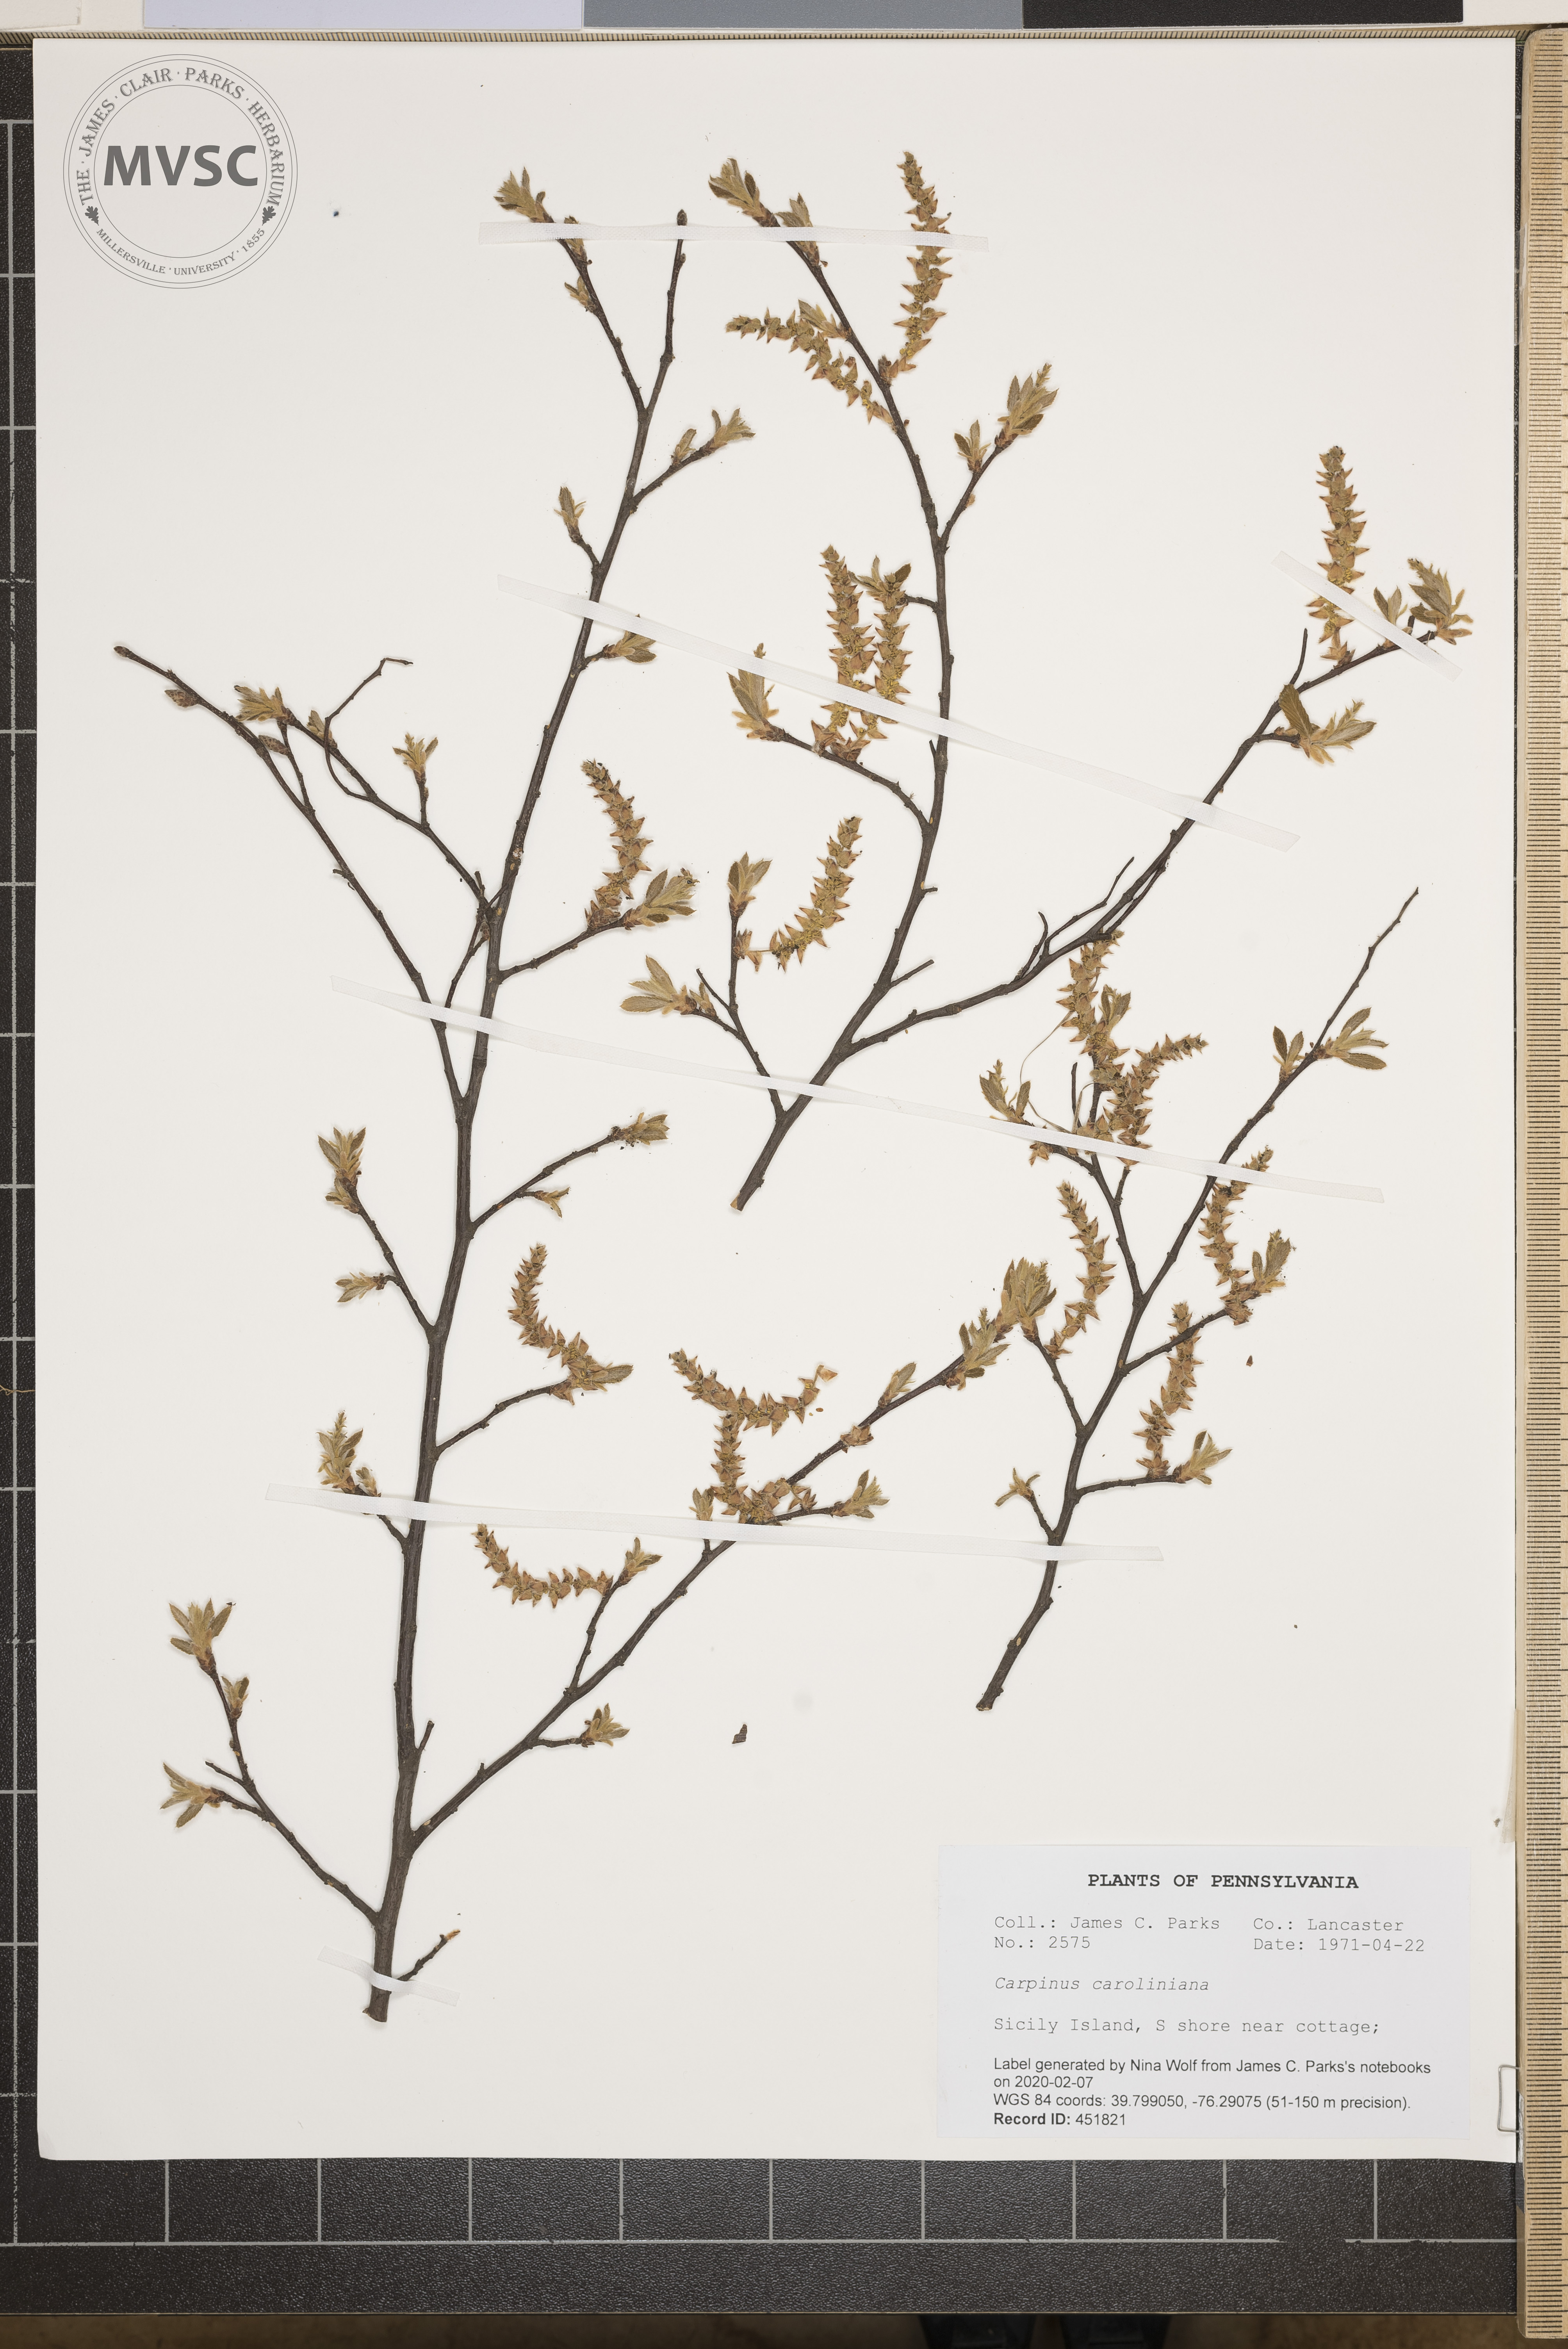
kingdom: Plantae
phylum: Tracheophyta
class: Magnoliopsida
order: Fagales
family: Betulaceae
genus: Carpinus
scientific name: Carpinus caroliniana
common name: American hornbeam
